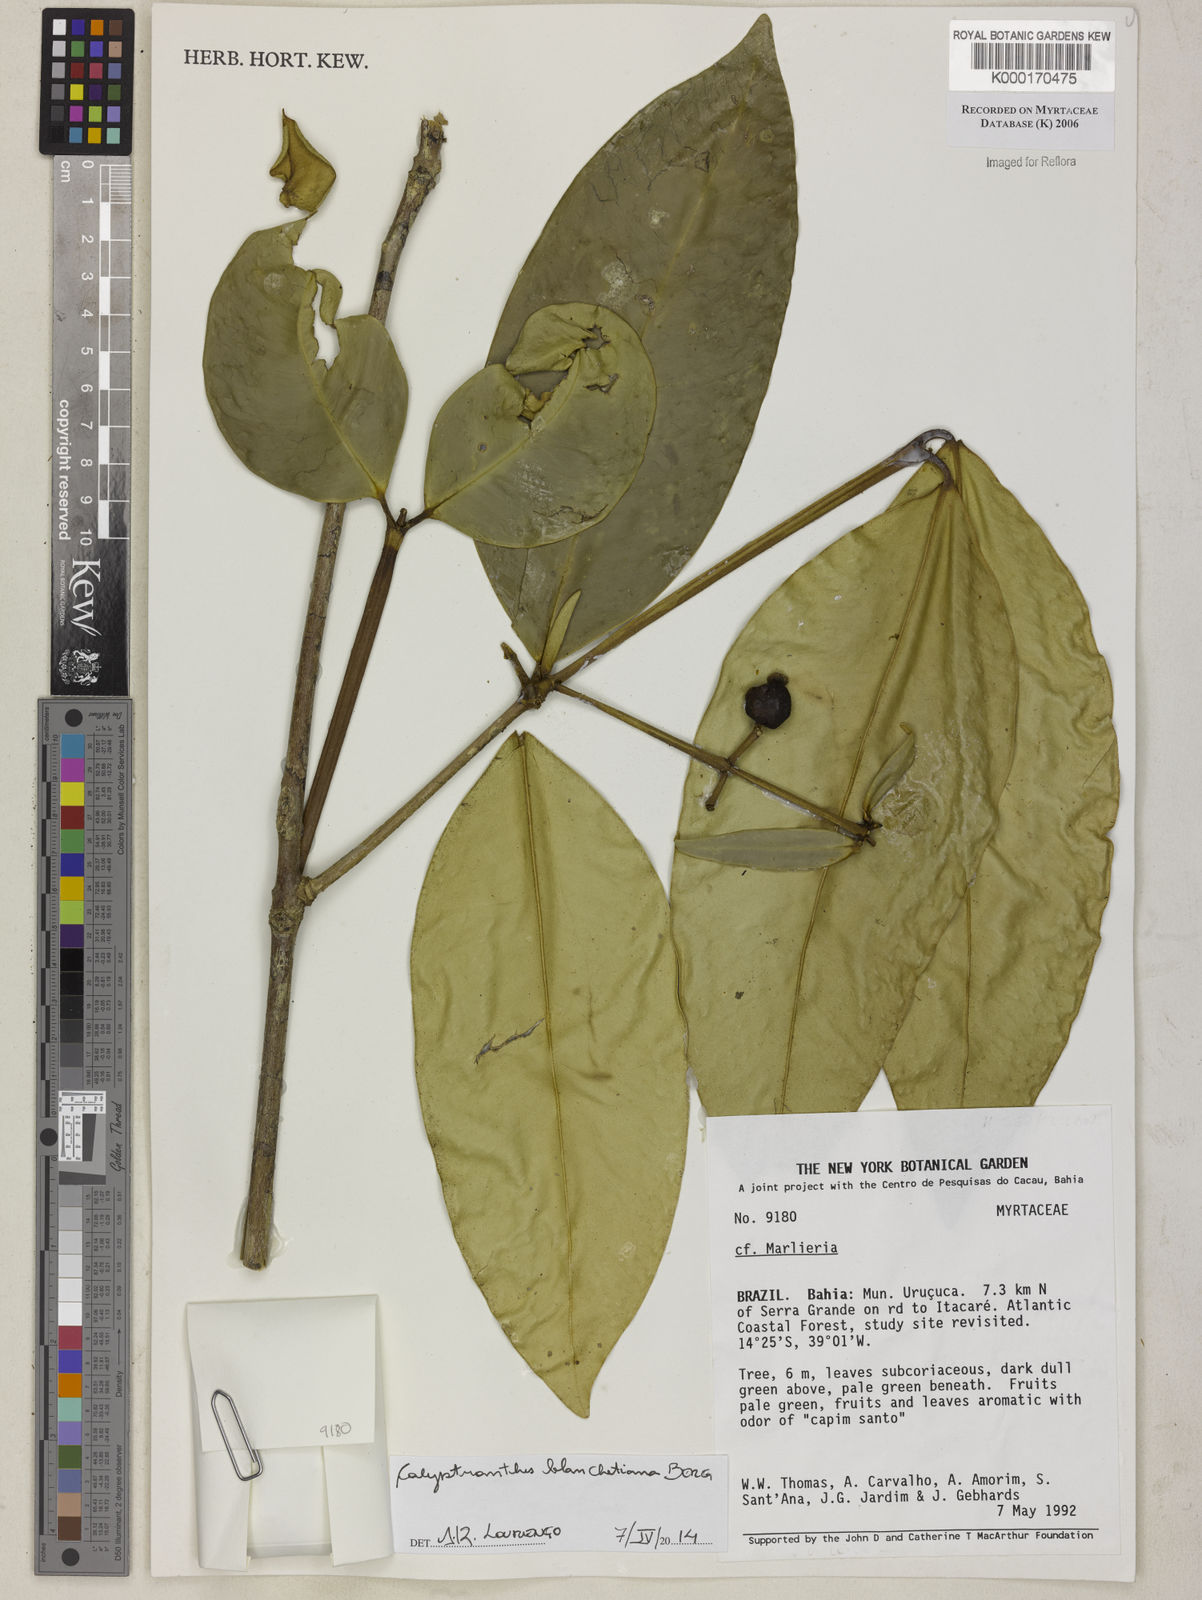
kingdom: Plantae
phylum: Tracheophyta
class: Magnoliopsida
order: Myrtales
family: Myrtaceae
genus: Marlierea
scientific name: Marlierea
